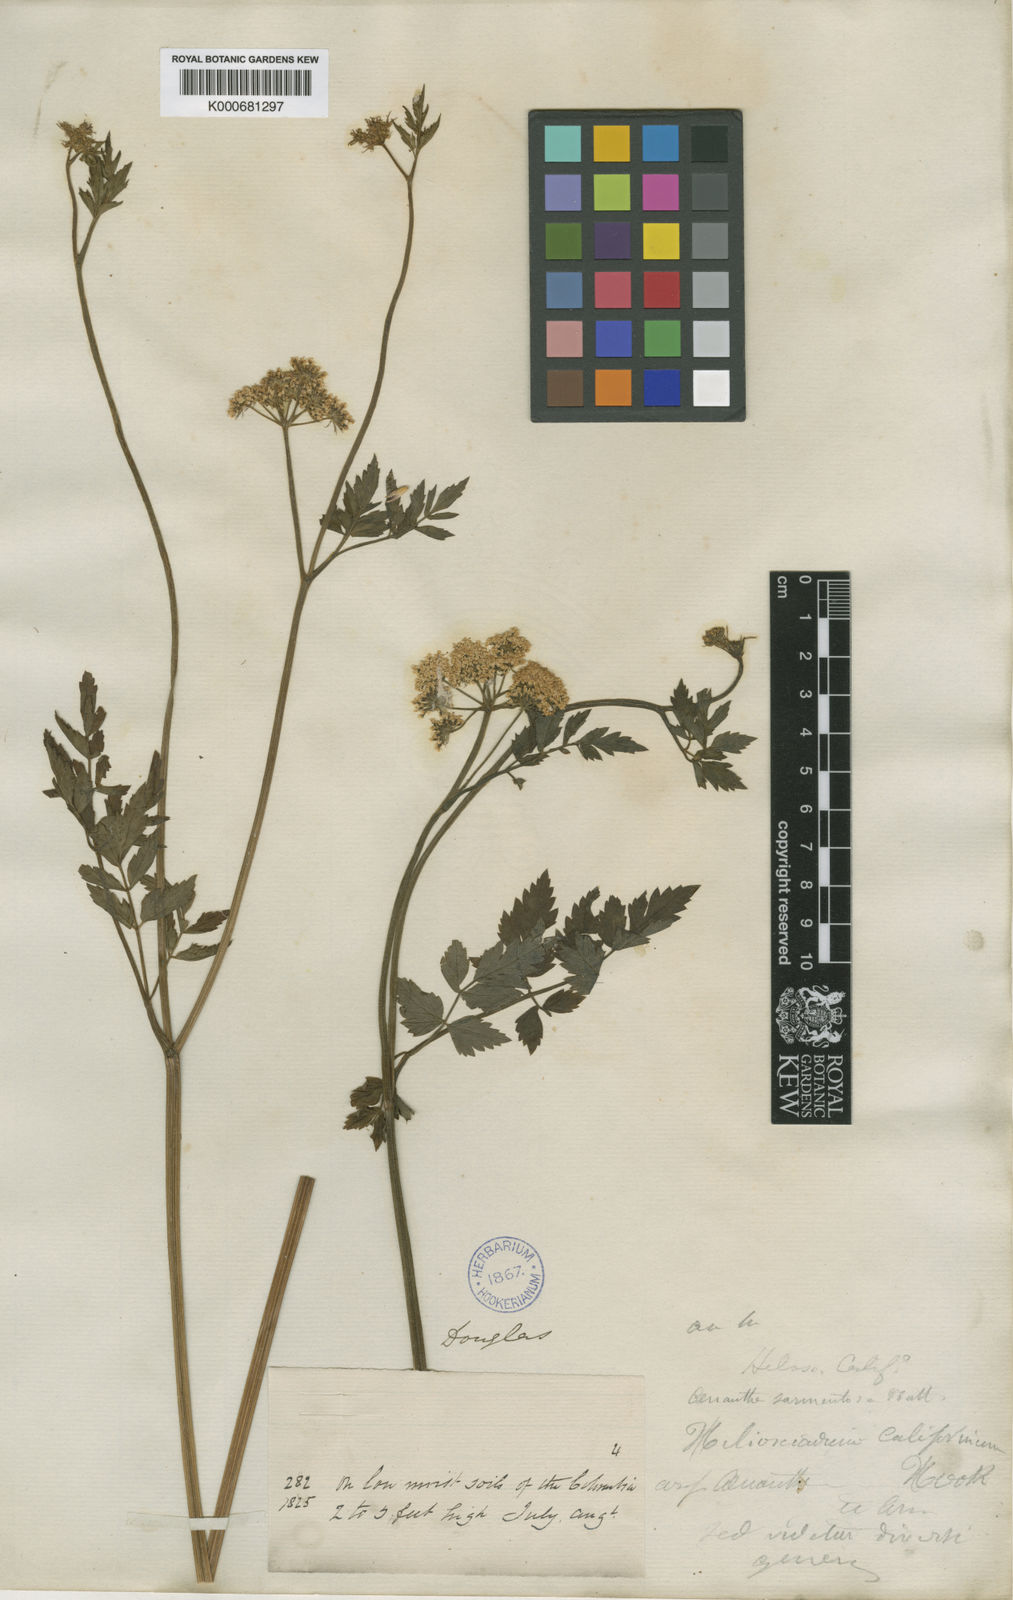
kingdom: Plantae
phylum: Tracheophyta
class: Magnoliopsida
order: Apiales
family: Apiaceae
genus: Oenanthe
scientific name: Oenanthe
